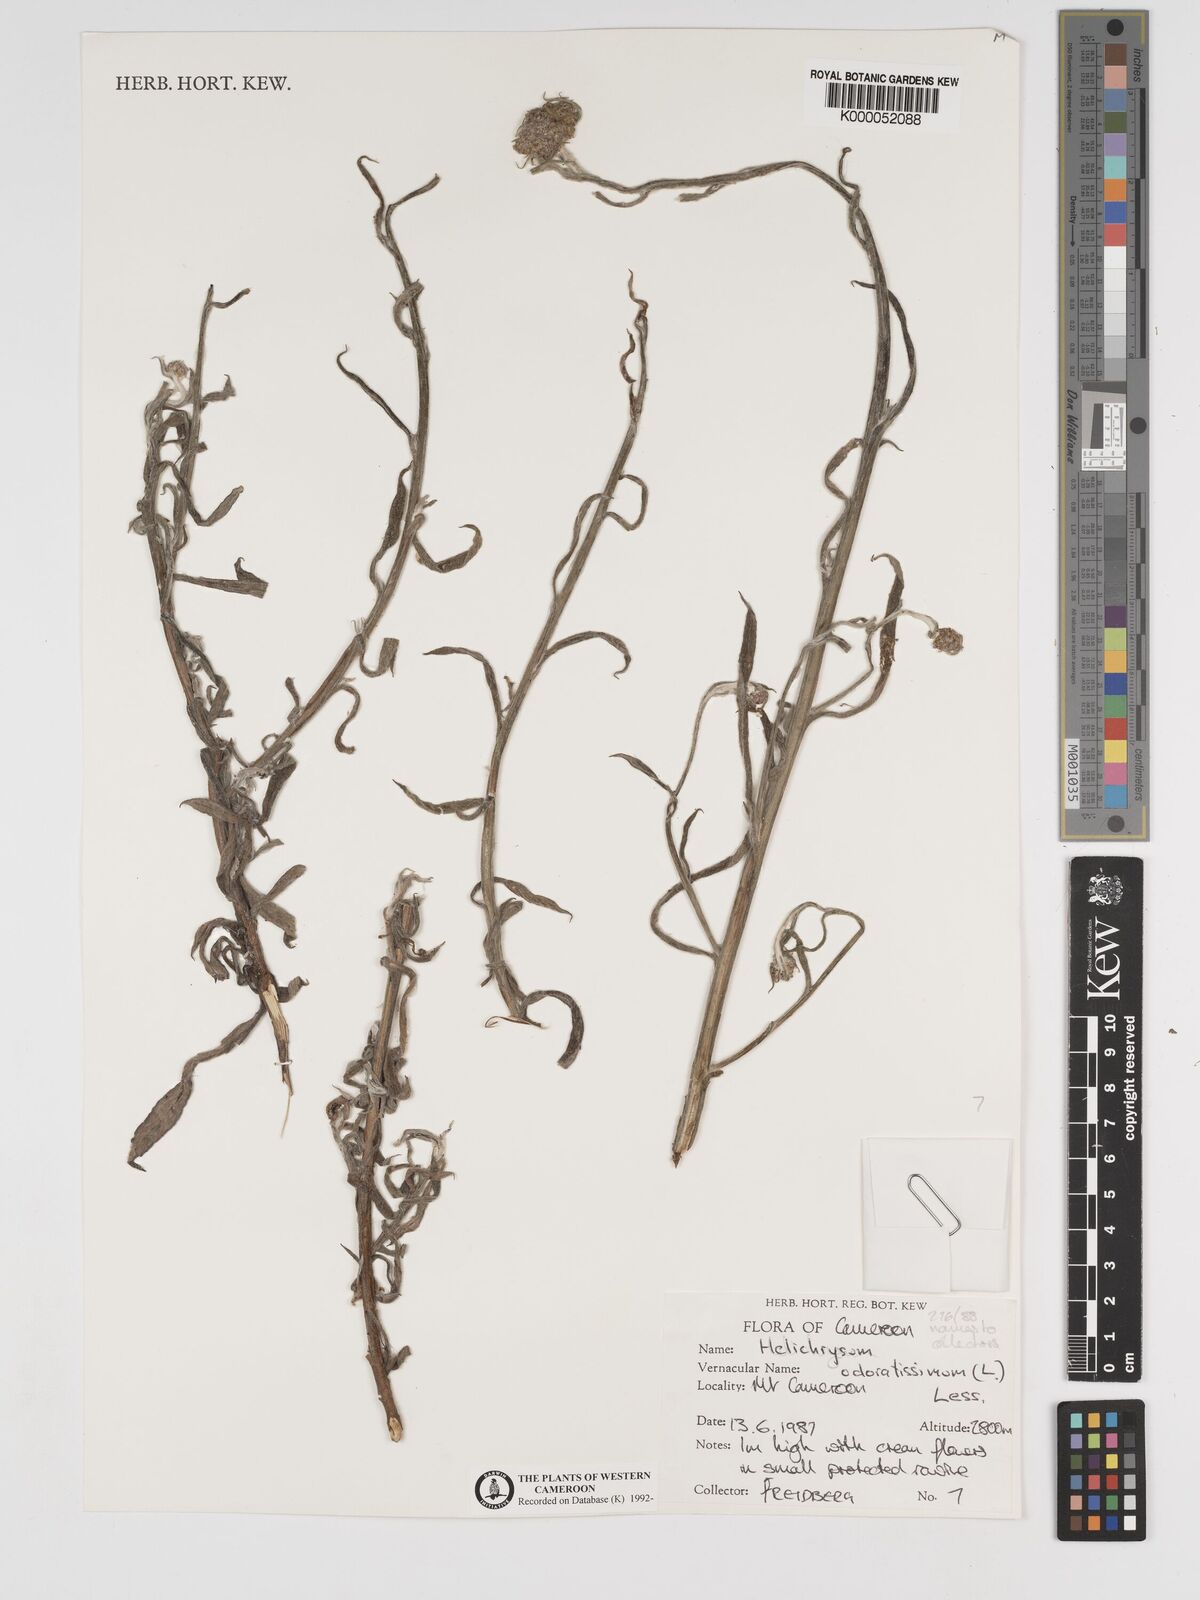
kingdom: Plantae
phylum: Tracheophyta
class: Magnoliopsida
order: Asterales
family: Asteraceae
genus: Helichrysum
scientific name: Helichrysum odoratissimum
